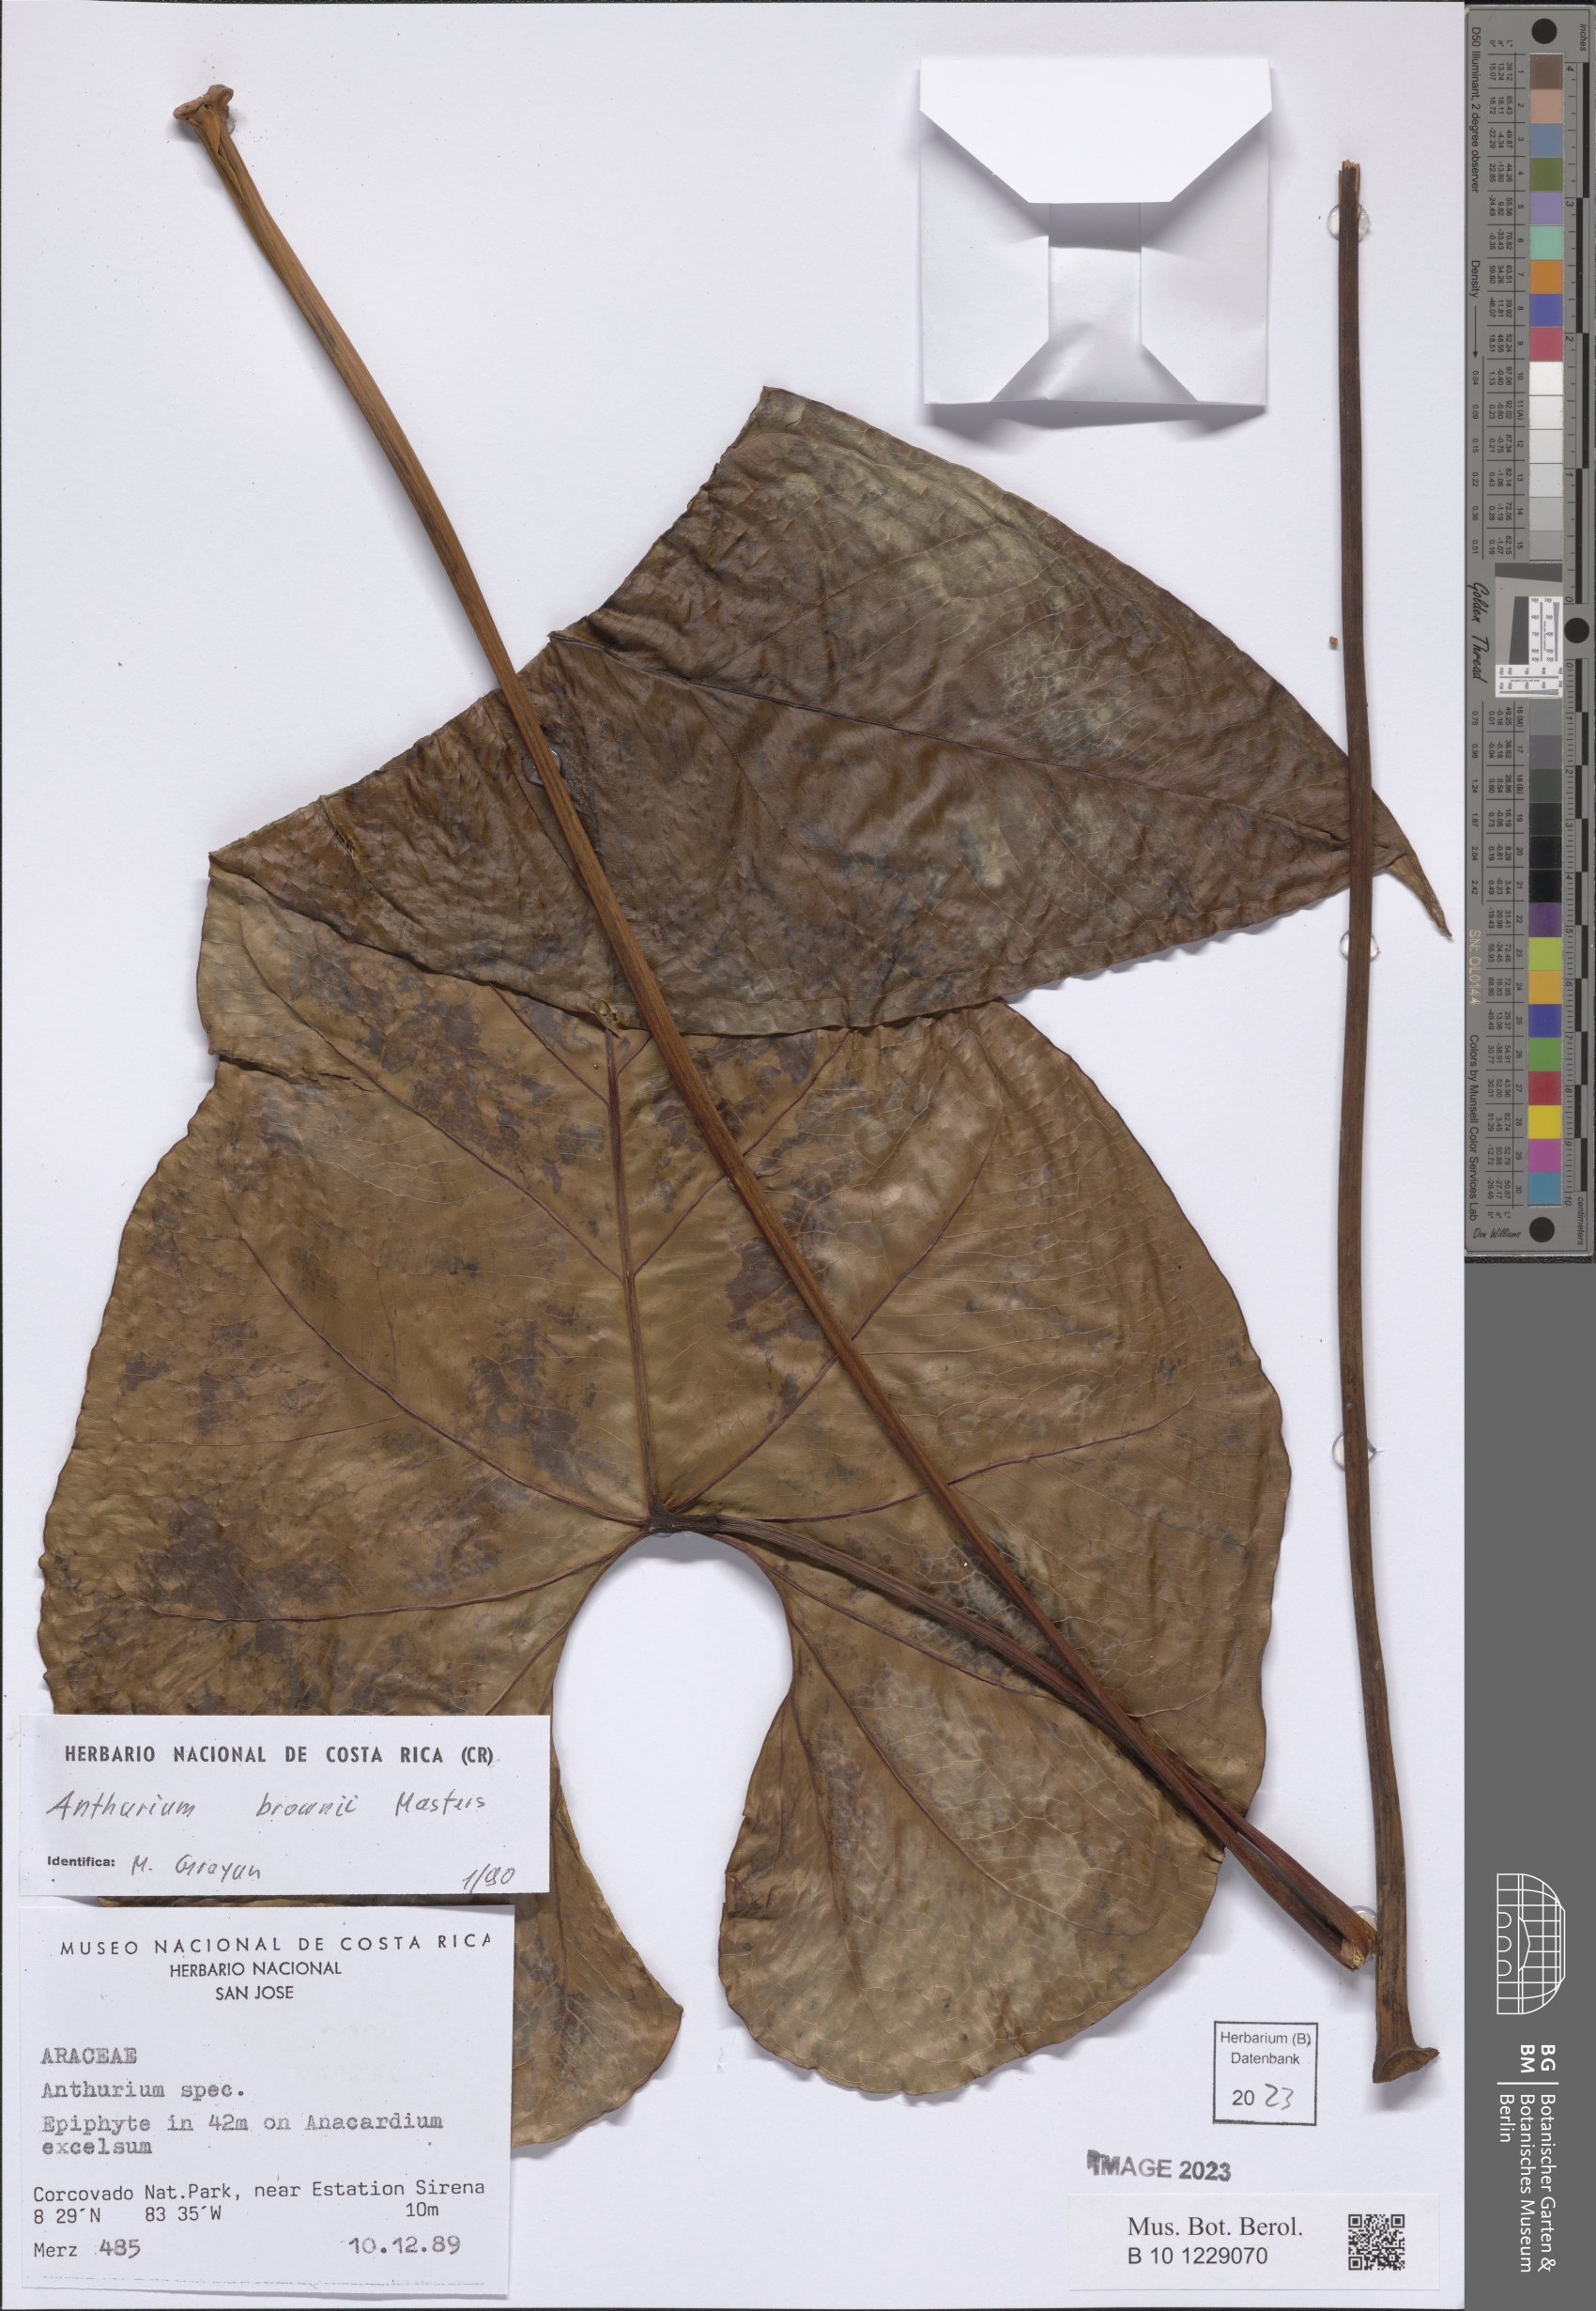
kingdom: Plantae
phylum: Tracheophyta
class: Liliopsida
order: Alismatales
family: Araceae
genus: Anthurium
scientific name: Anthurium brownii
